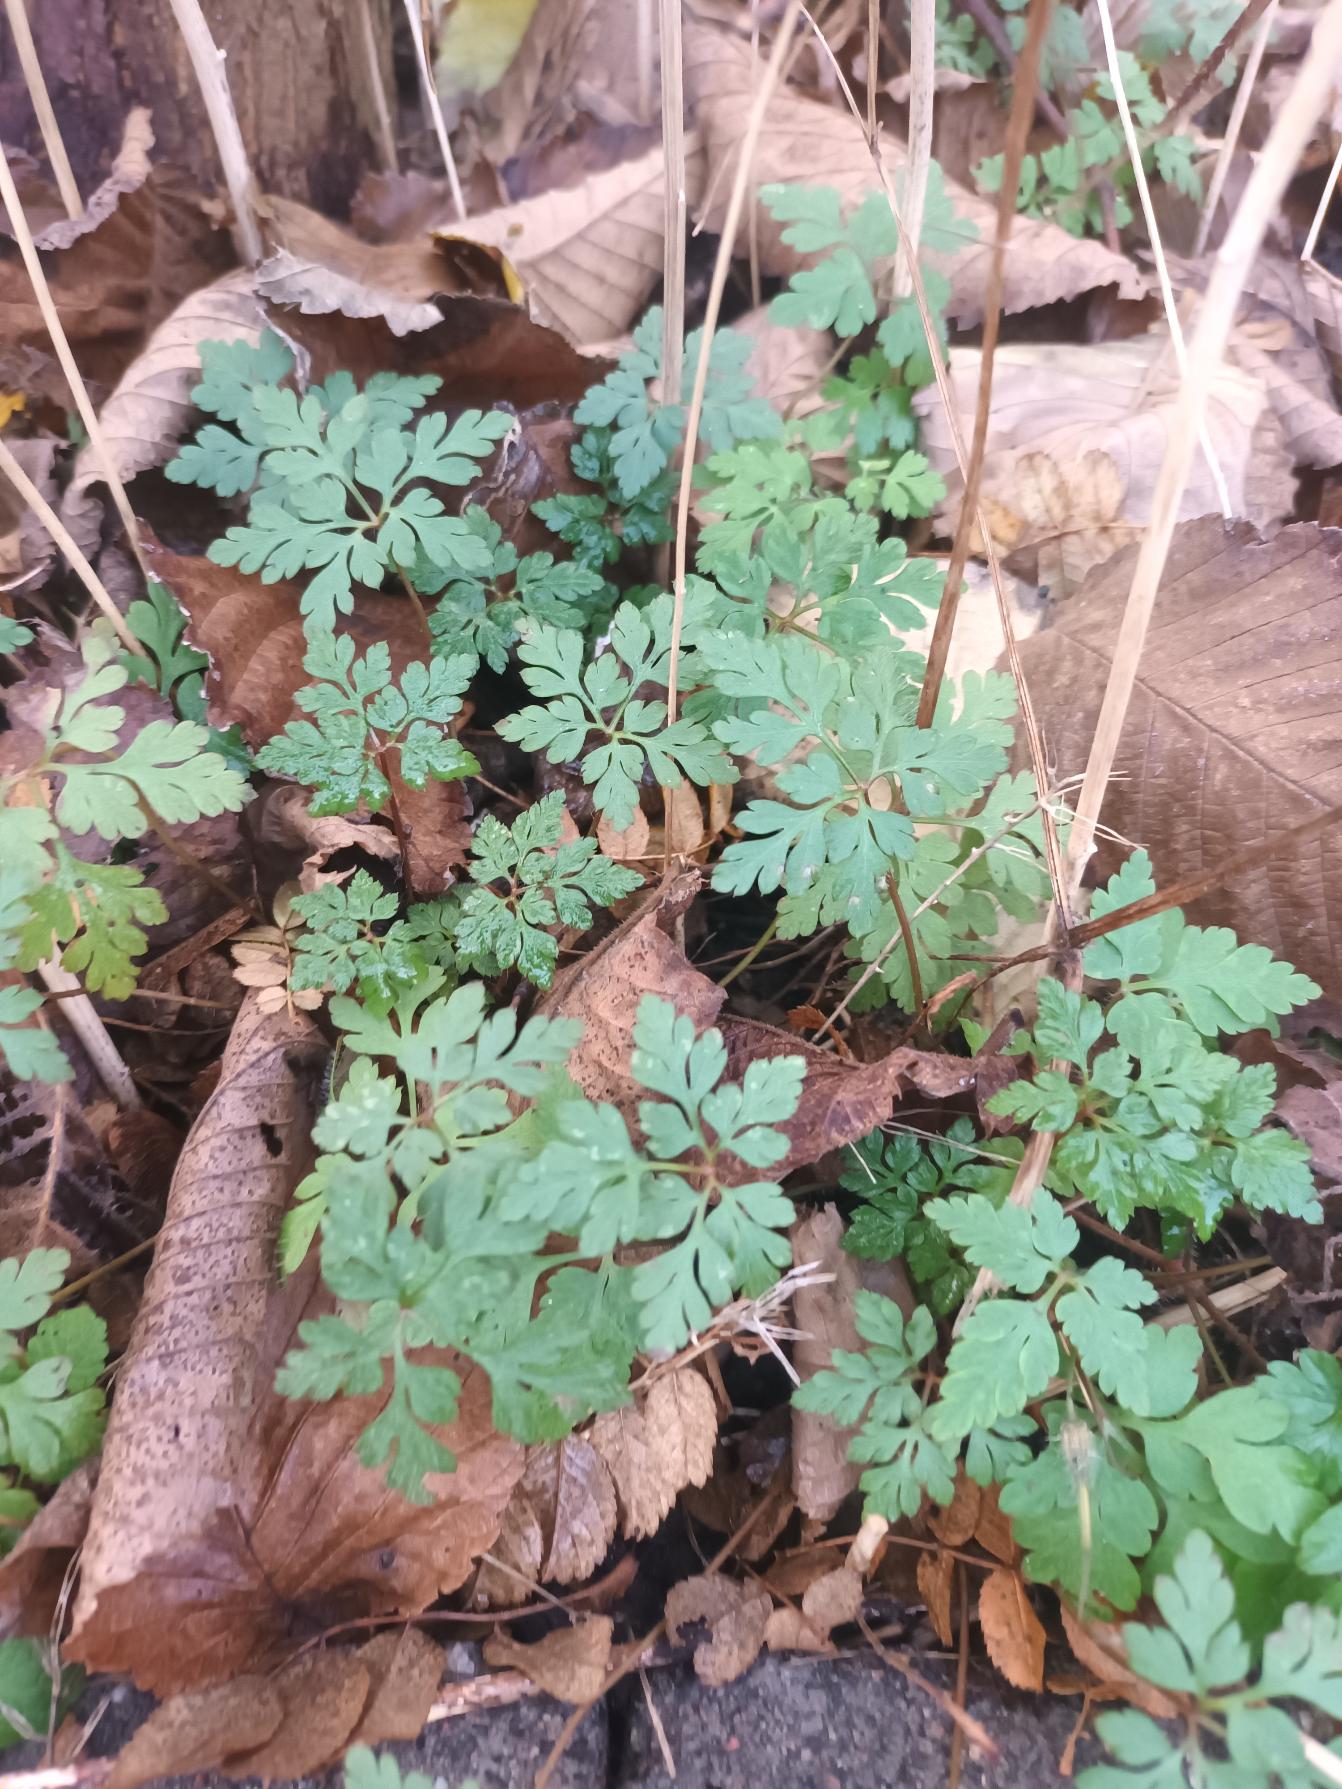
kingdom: Plantae
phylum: Tracheophyta
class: Magnoliopsida
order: Geraniales
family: Geraniaceae
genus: Geranium
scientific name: Geranium robertianum
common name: Stinkende storkenæb
